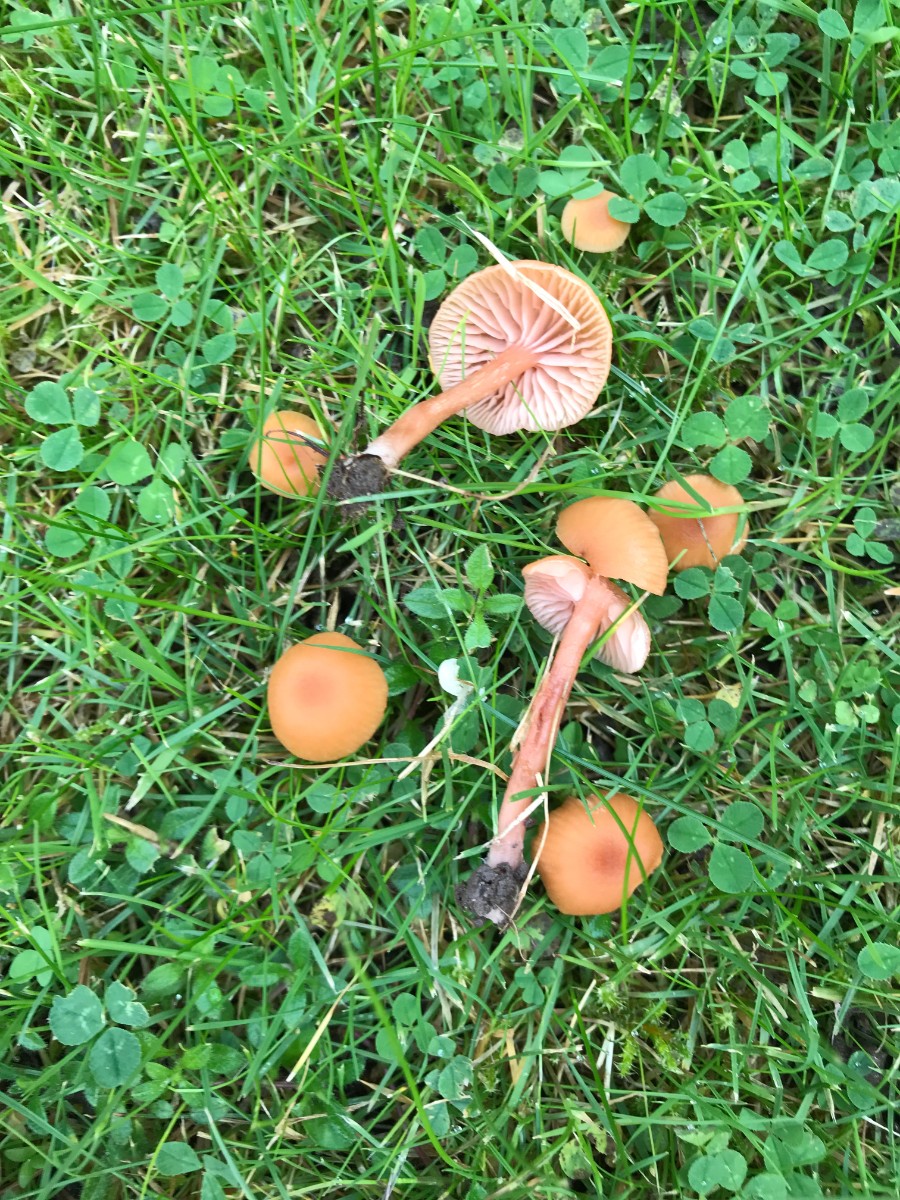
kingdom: Fungi
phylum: Basidiomycota
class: Agaricomycetes
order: Agaricales
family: Hydnangiaceae
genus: Laccaria
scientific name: Laccaria laccata
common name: rød ametysthat
